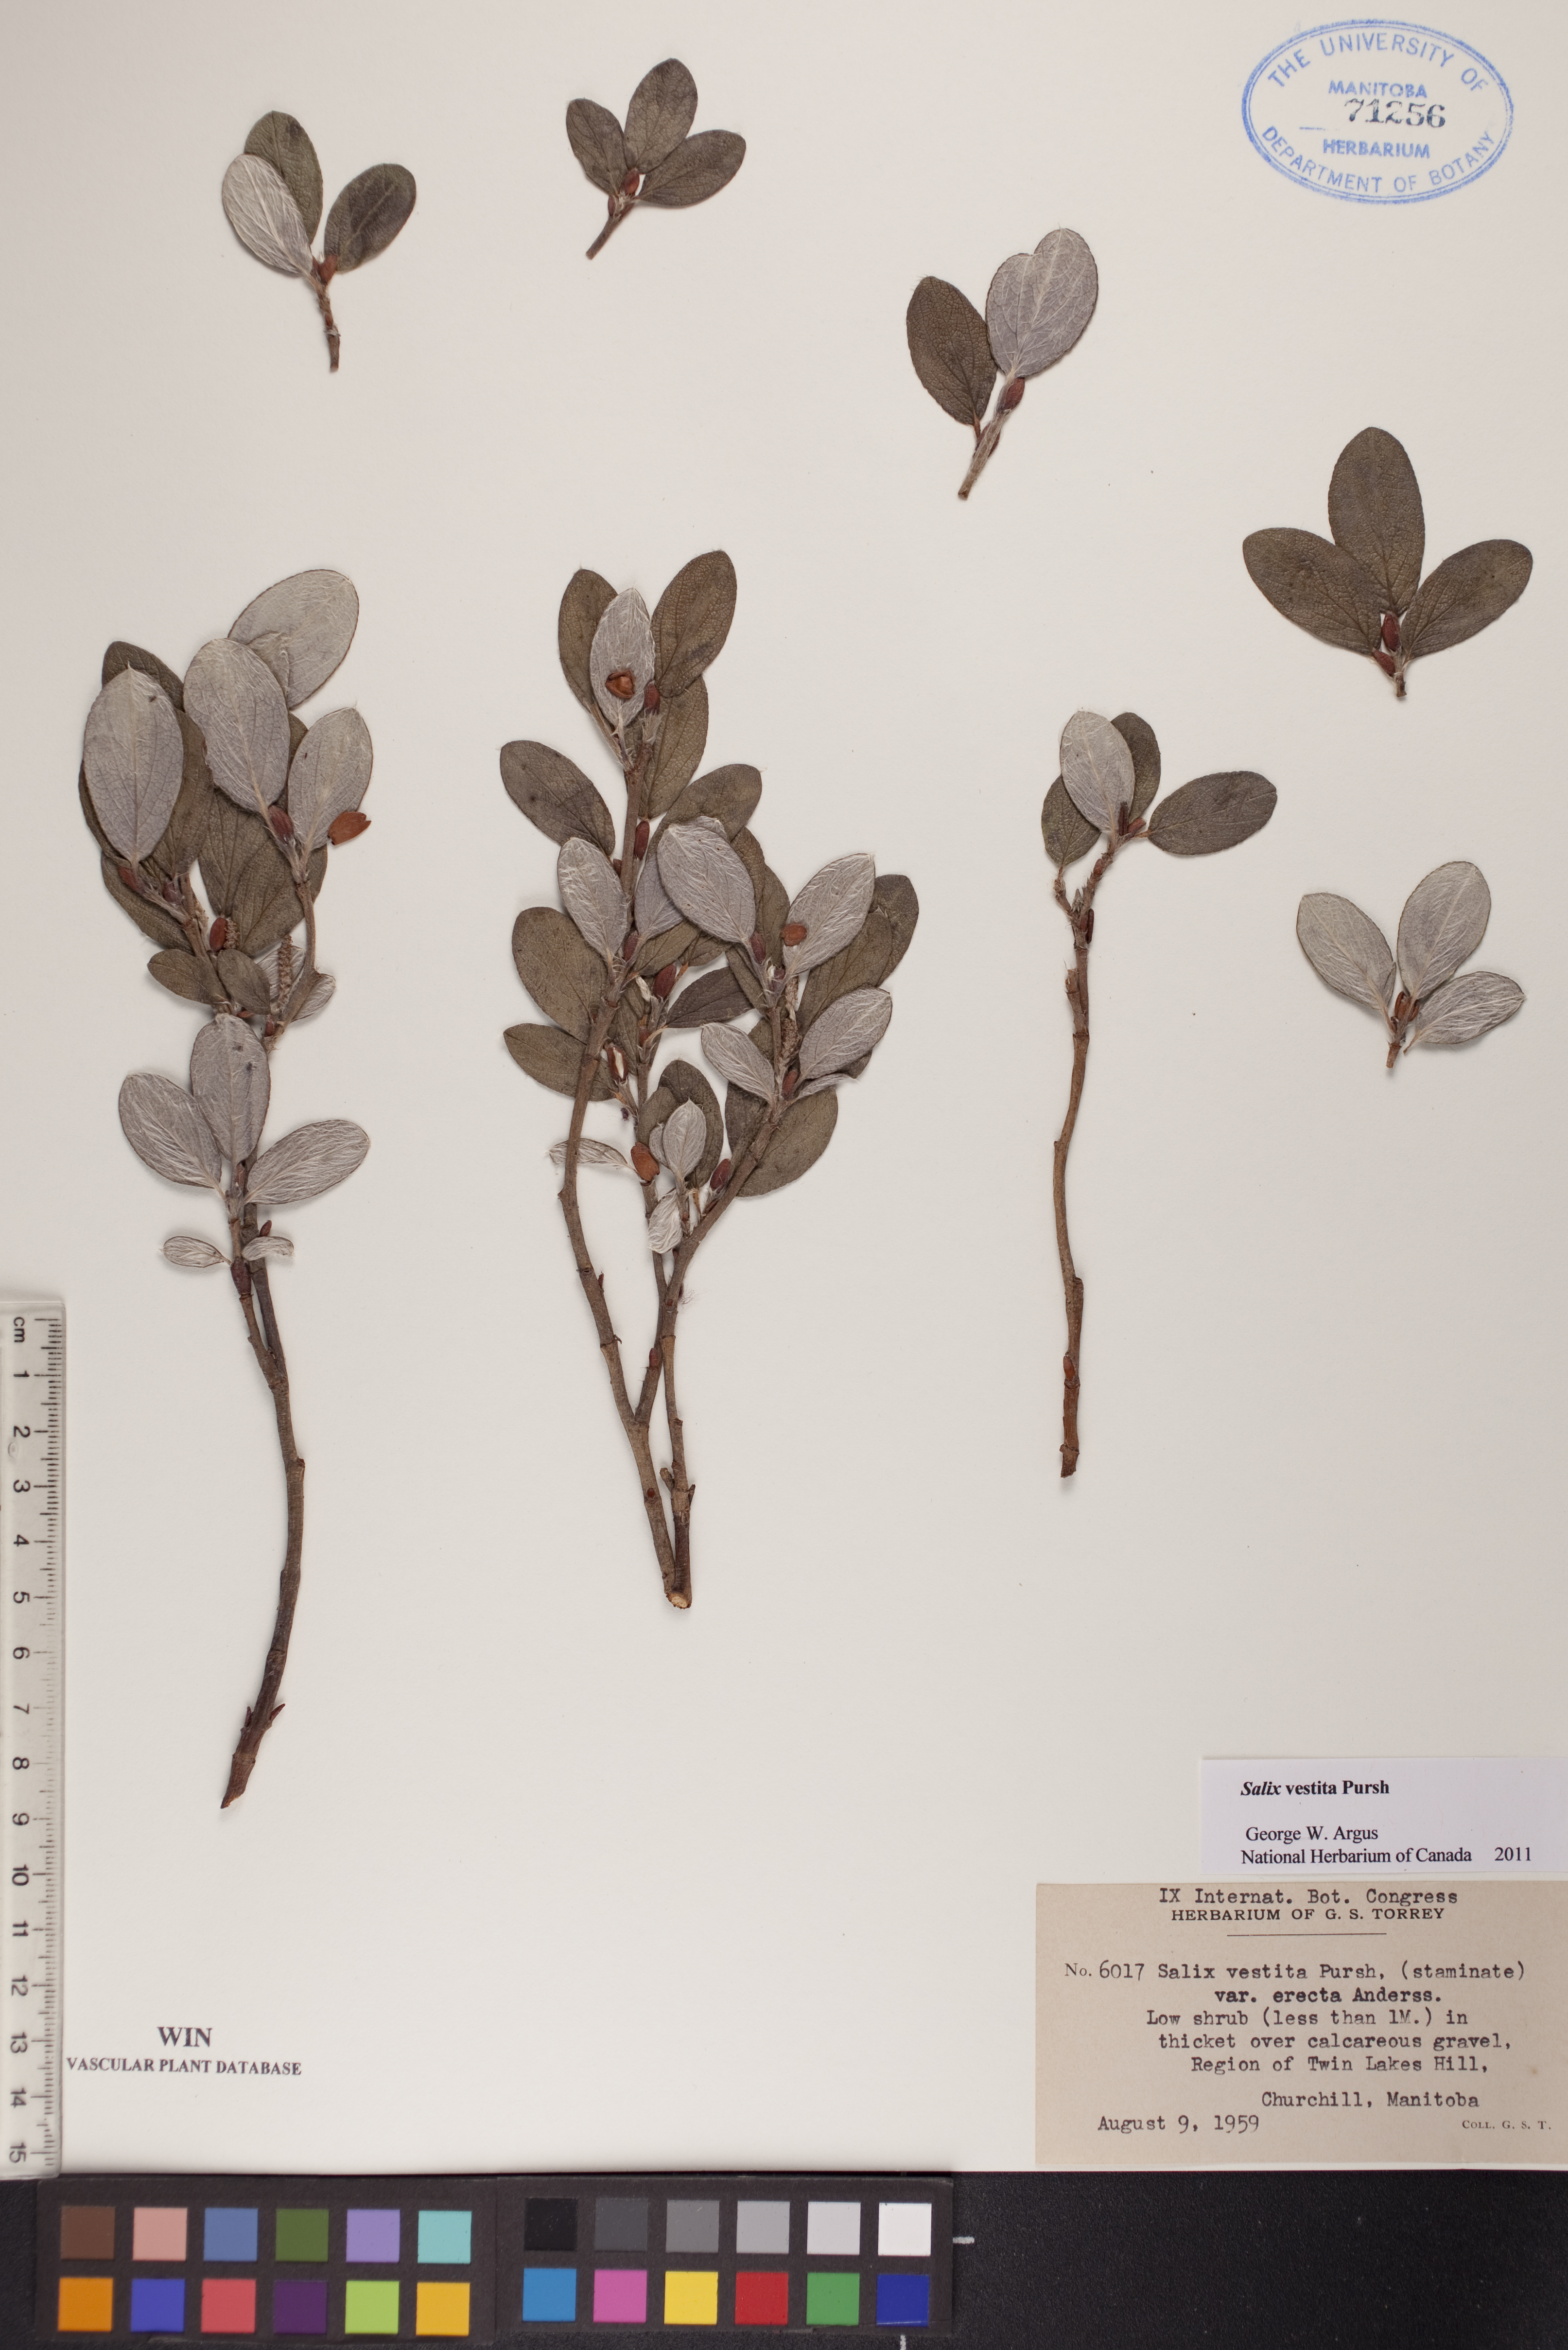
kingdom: Plantae
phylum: Tracheophyta
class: Magnoliopsida
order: Malpighiales
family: Salicaceae
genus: Salix
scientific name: Salix vestita
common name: Hairy willow
